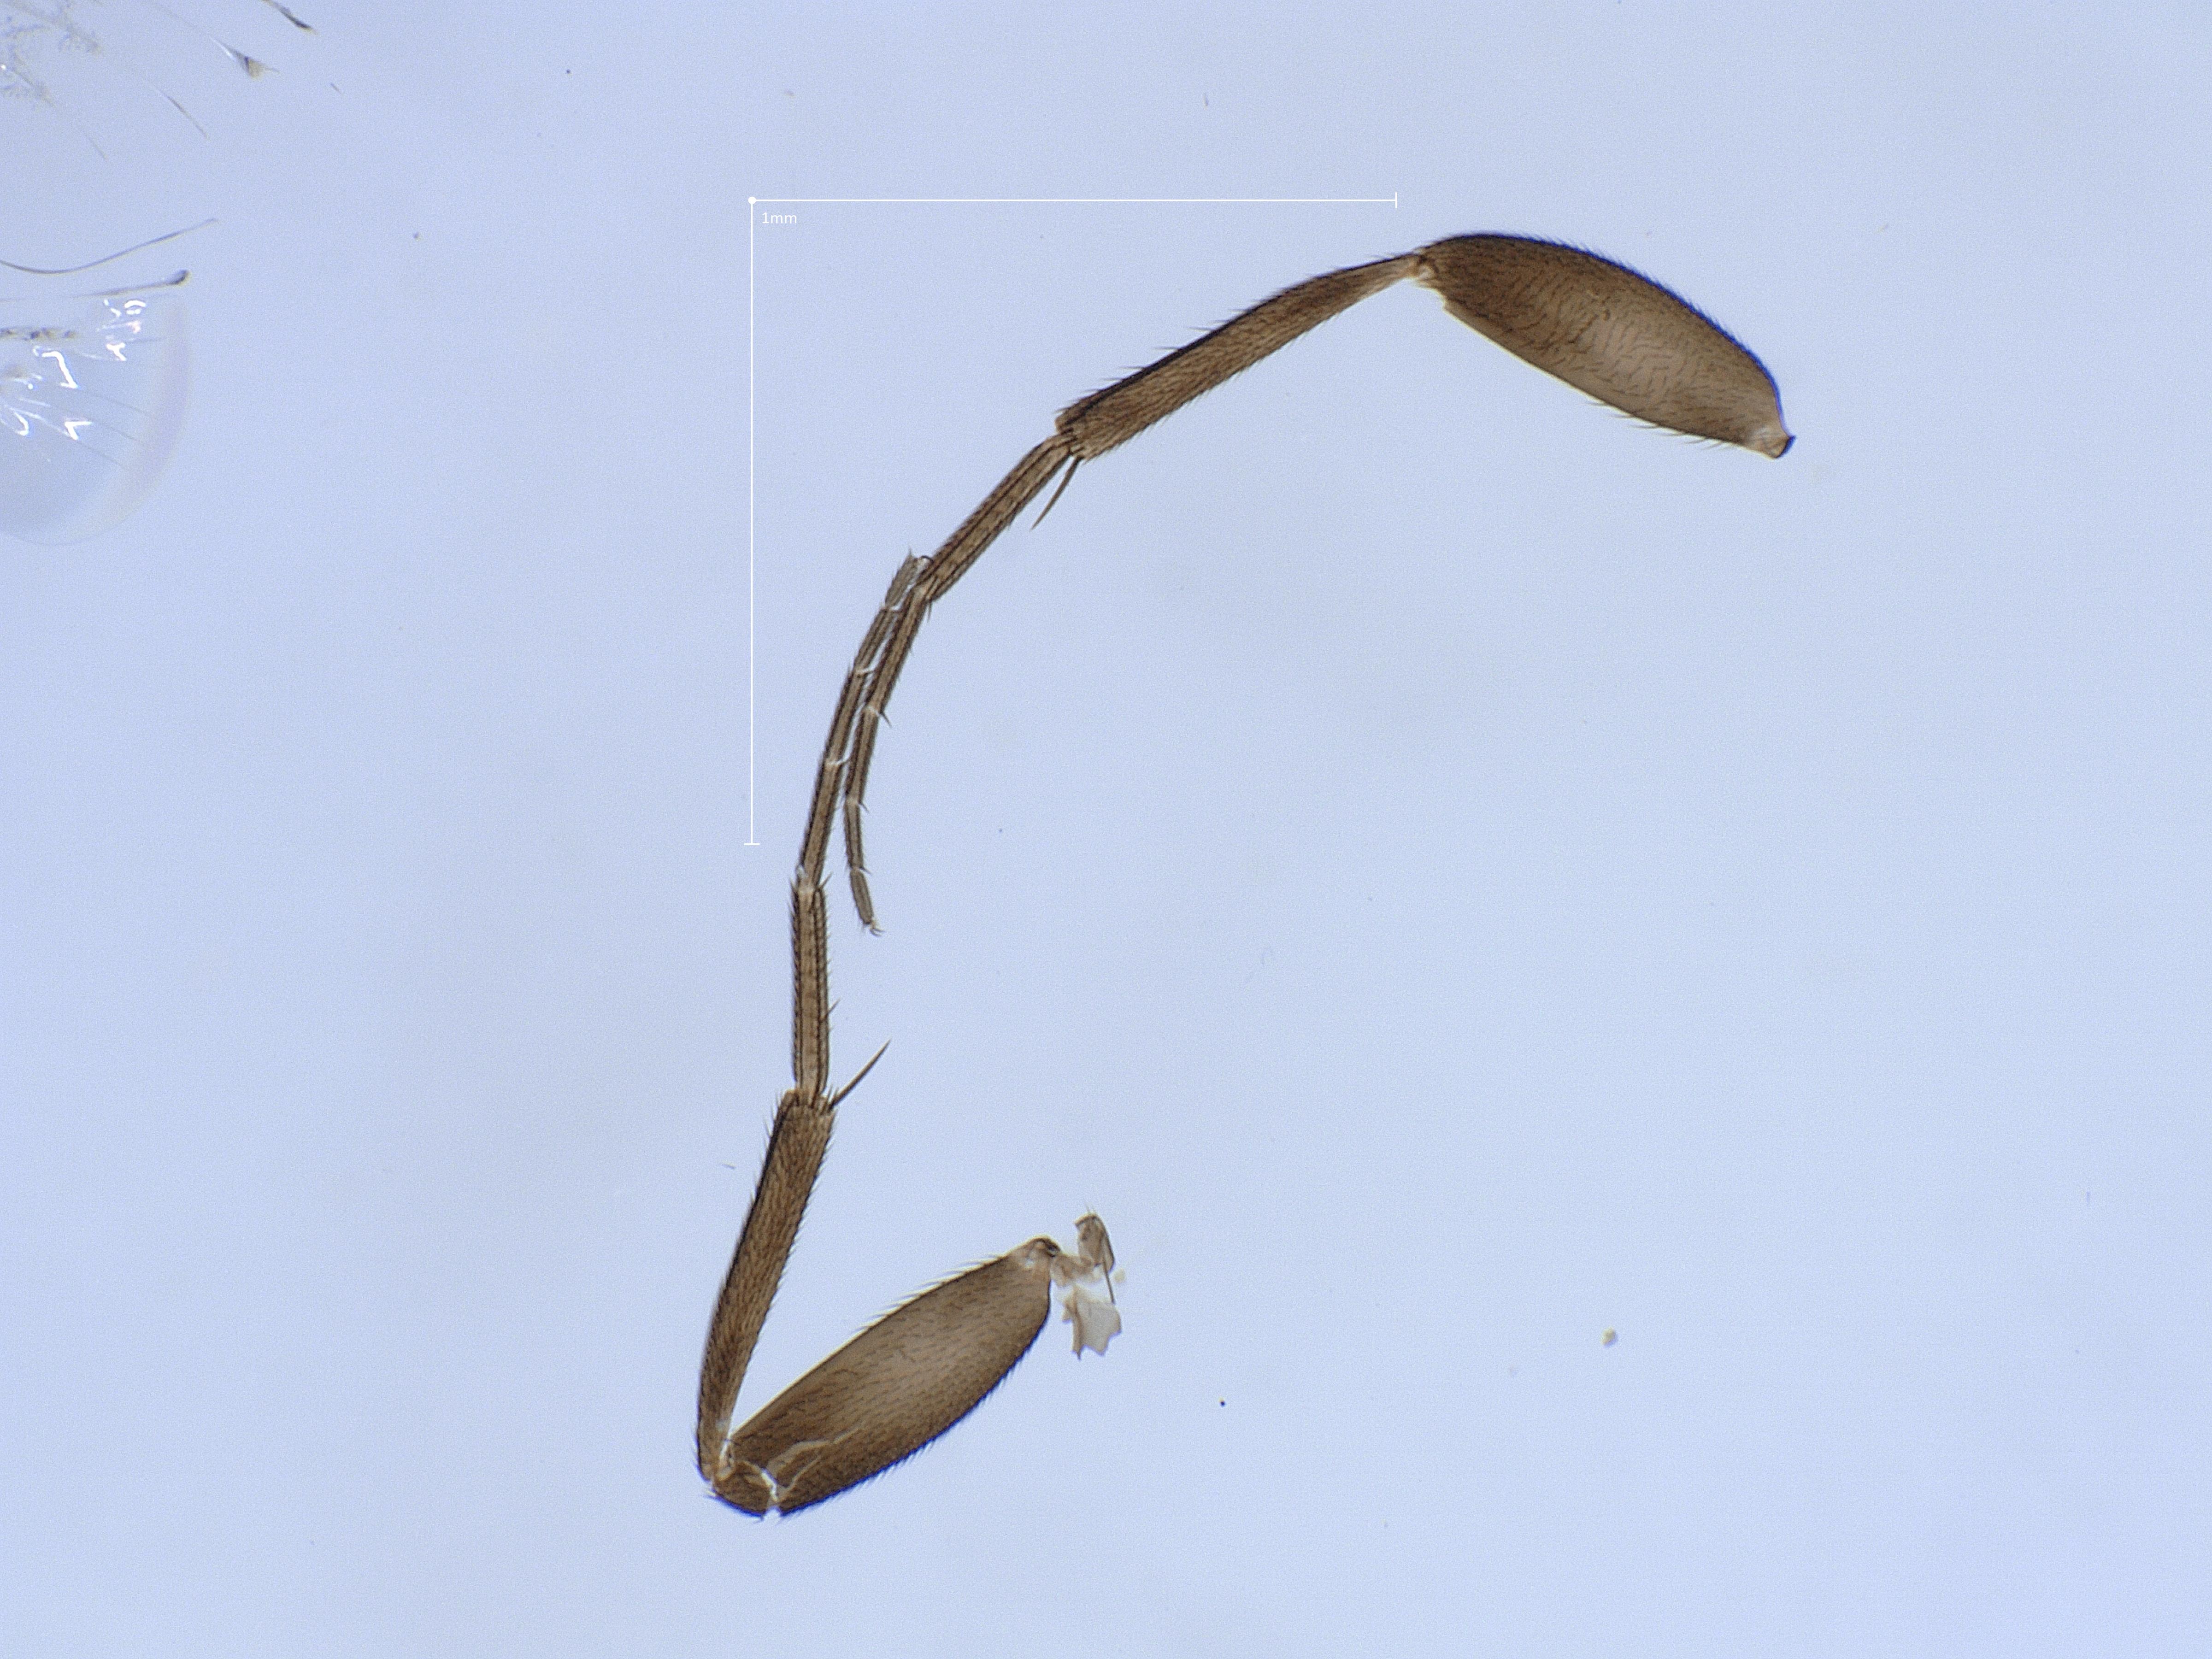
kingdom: Animalia
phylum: Arthropoda
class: Insecta
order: Diptera
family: Phoridae
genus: Megaselia
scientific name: Megaselia longicostalis
